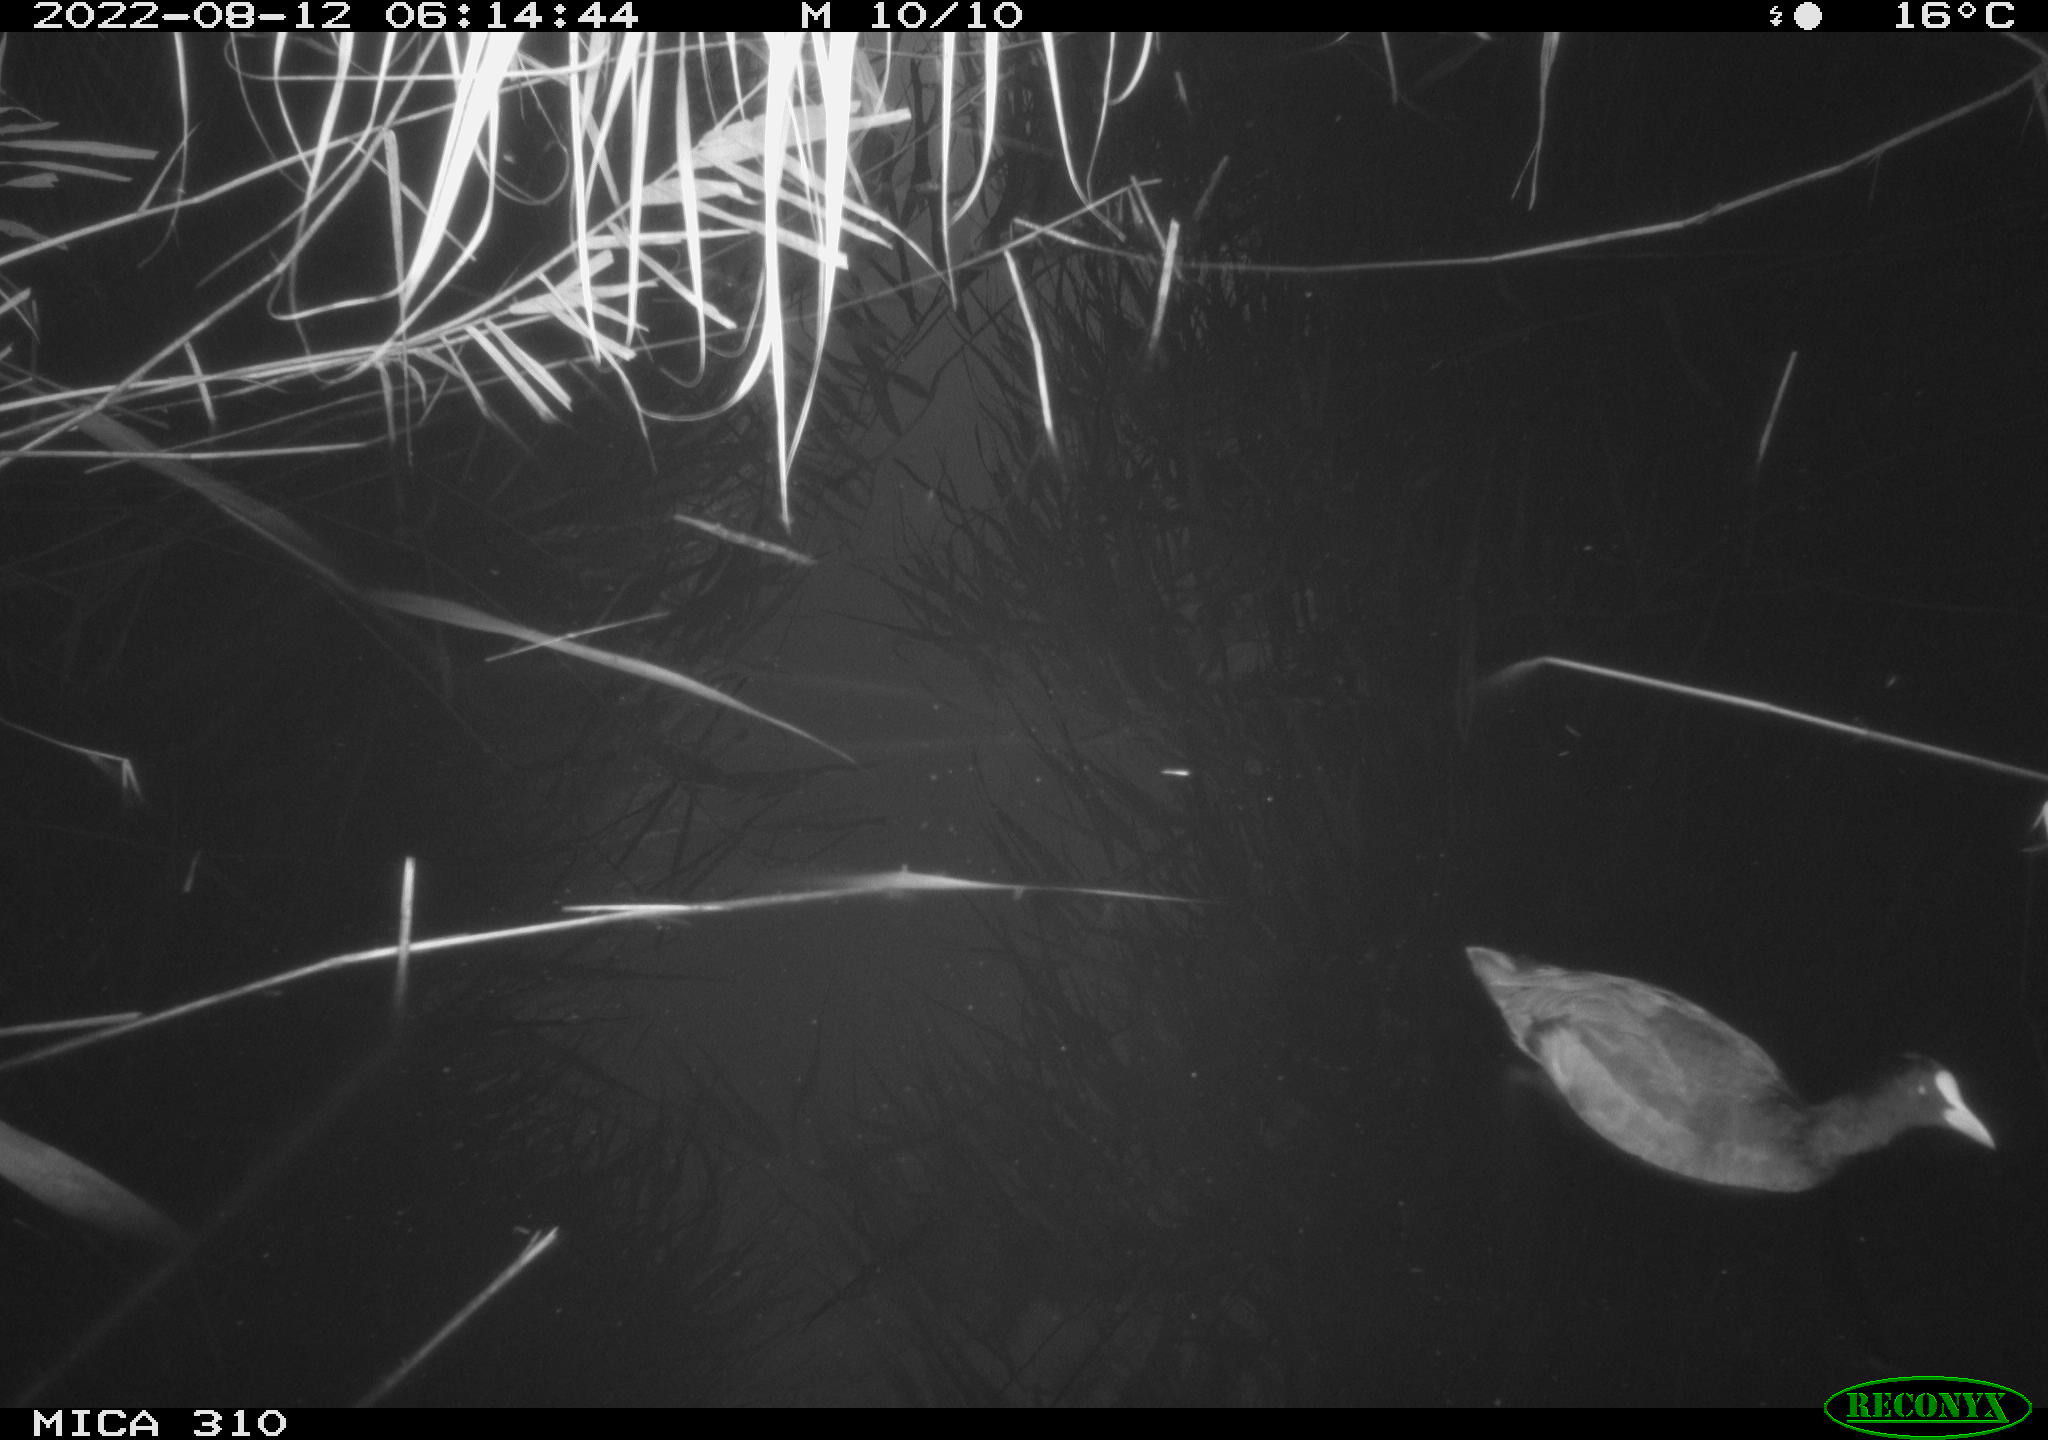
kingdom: Animalia
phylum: Chordata
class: Aves
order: Gruiformes
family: Rallidae
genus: Fulica
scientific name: Fulica atra
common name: Eurasian coot
